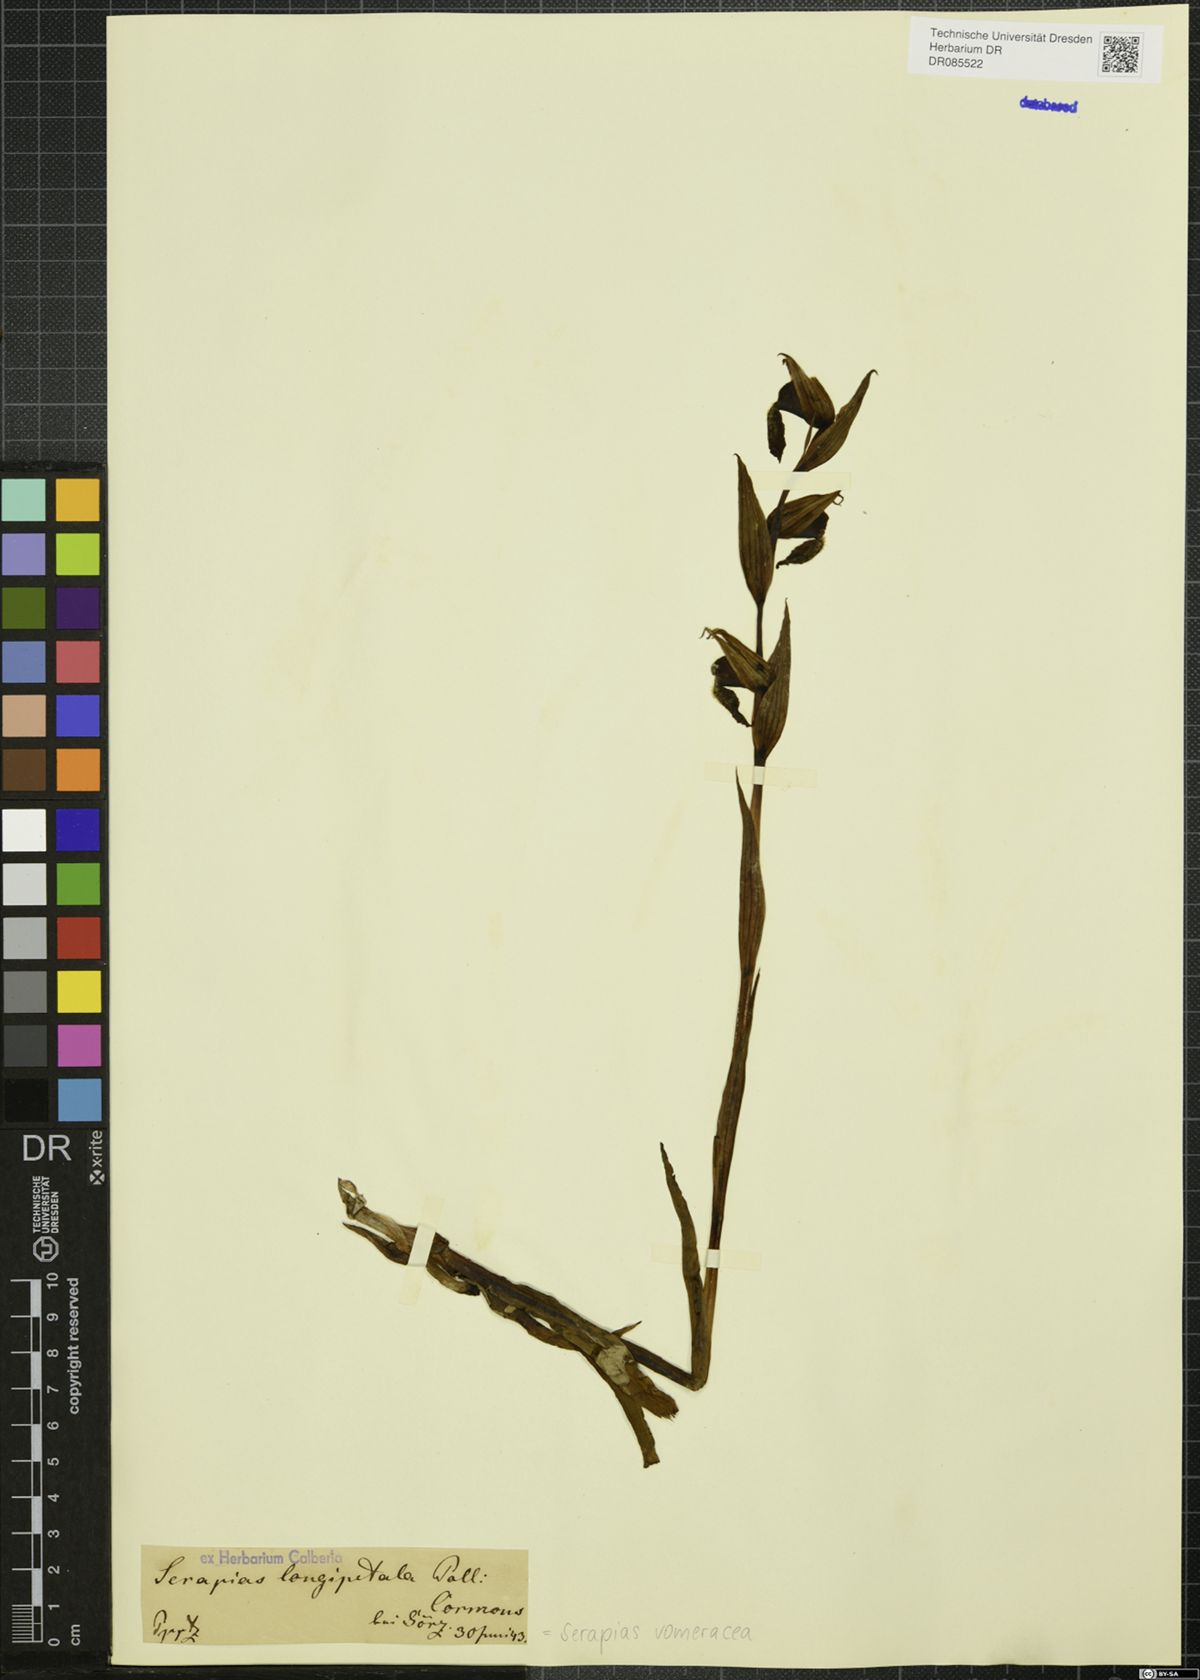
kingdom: Plantae
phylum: Tracheophyta
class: Liliopsida
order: Asparagales
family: Orchidaceae
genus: Serapias
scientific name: Serapias vomeracea
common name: Long-lipped tongue-orchid
